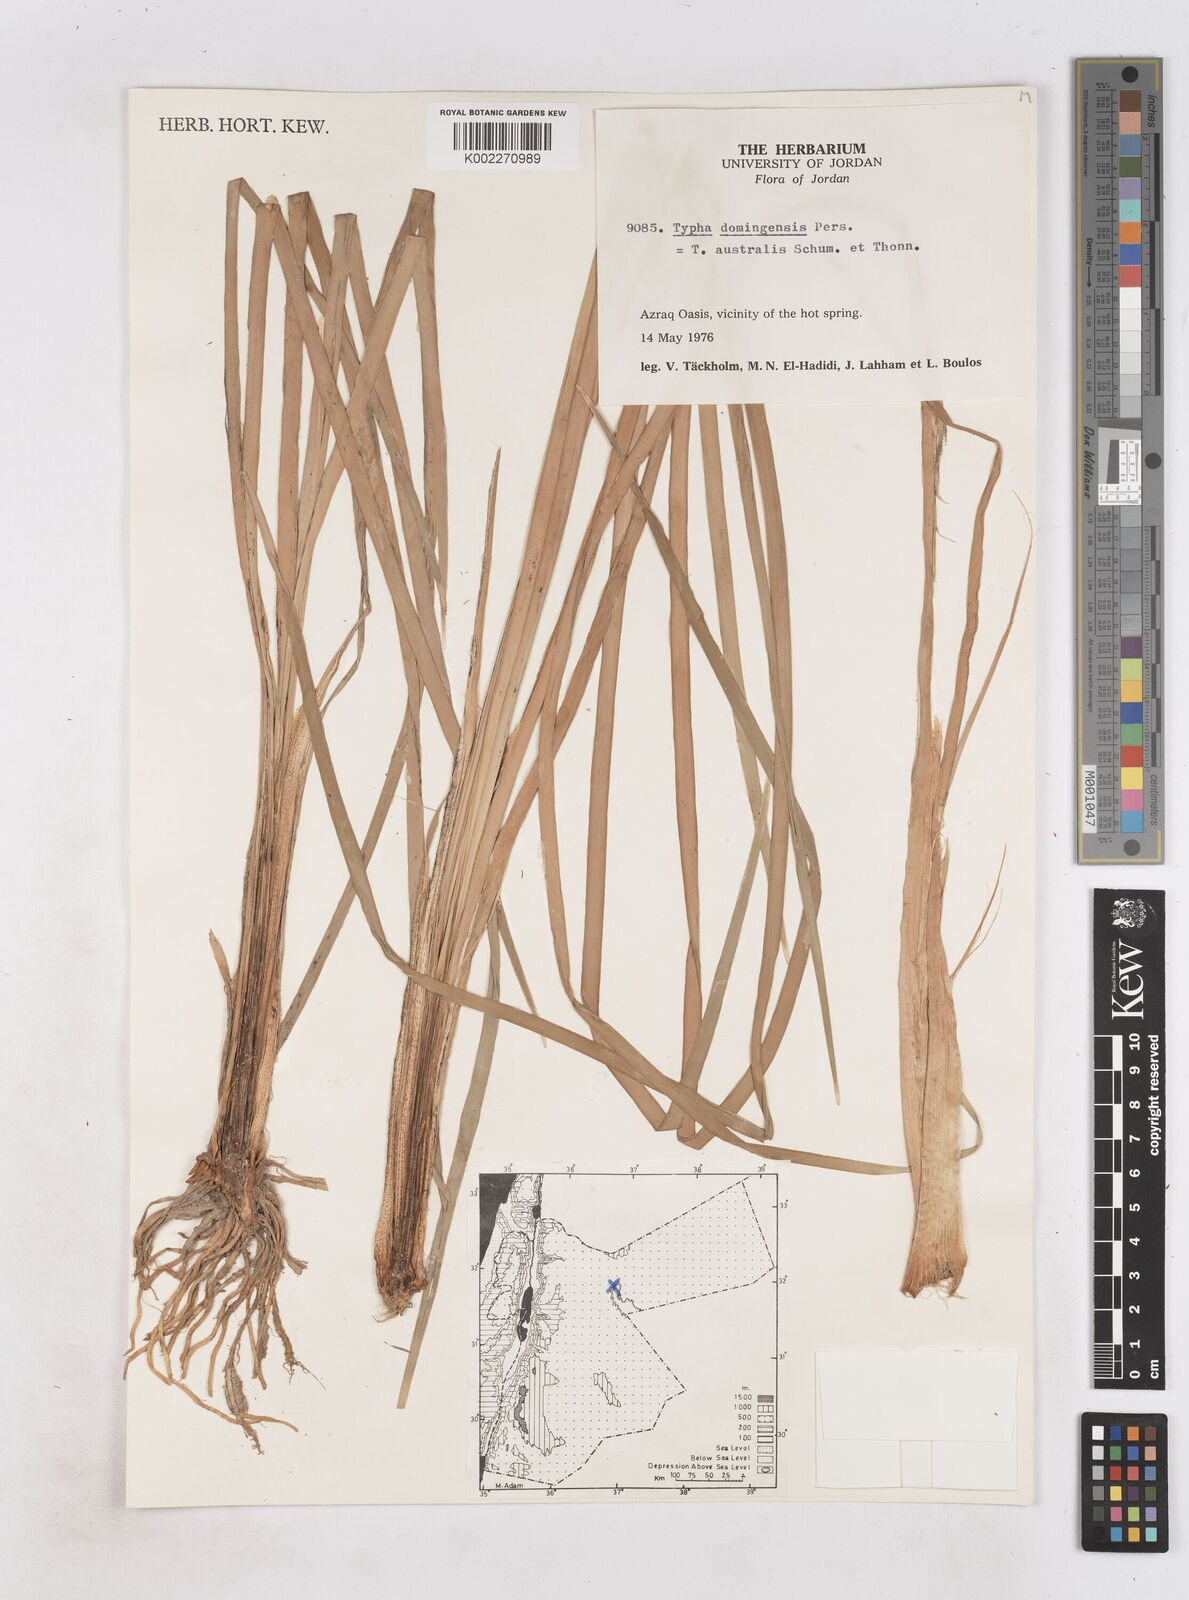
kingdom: Plantae
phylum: Tracheophyta
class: Liliopsida
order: Poales
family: Typhaceae
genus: Typha
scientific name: Typha domingensis
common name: Southern cattail
